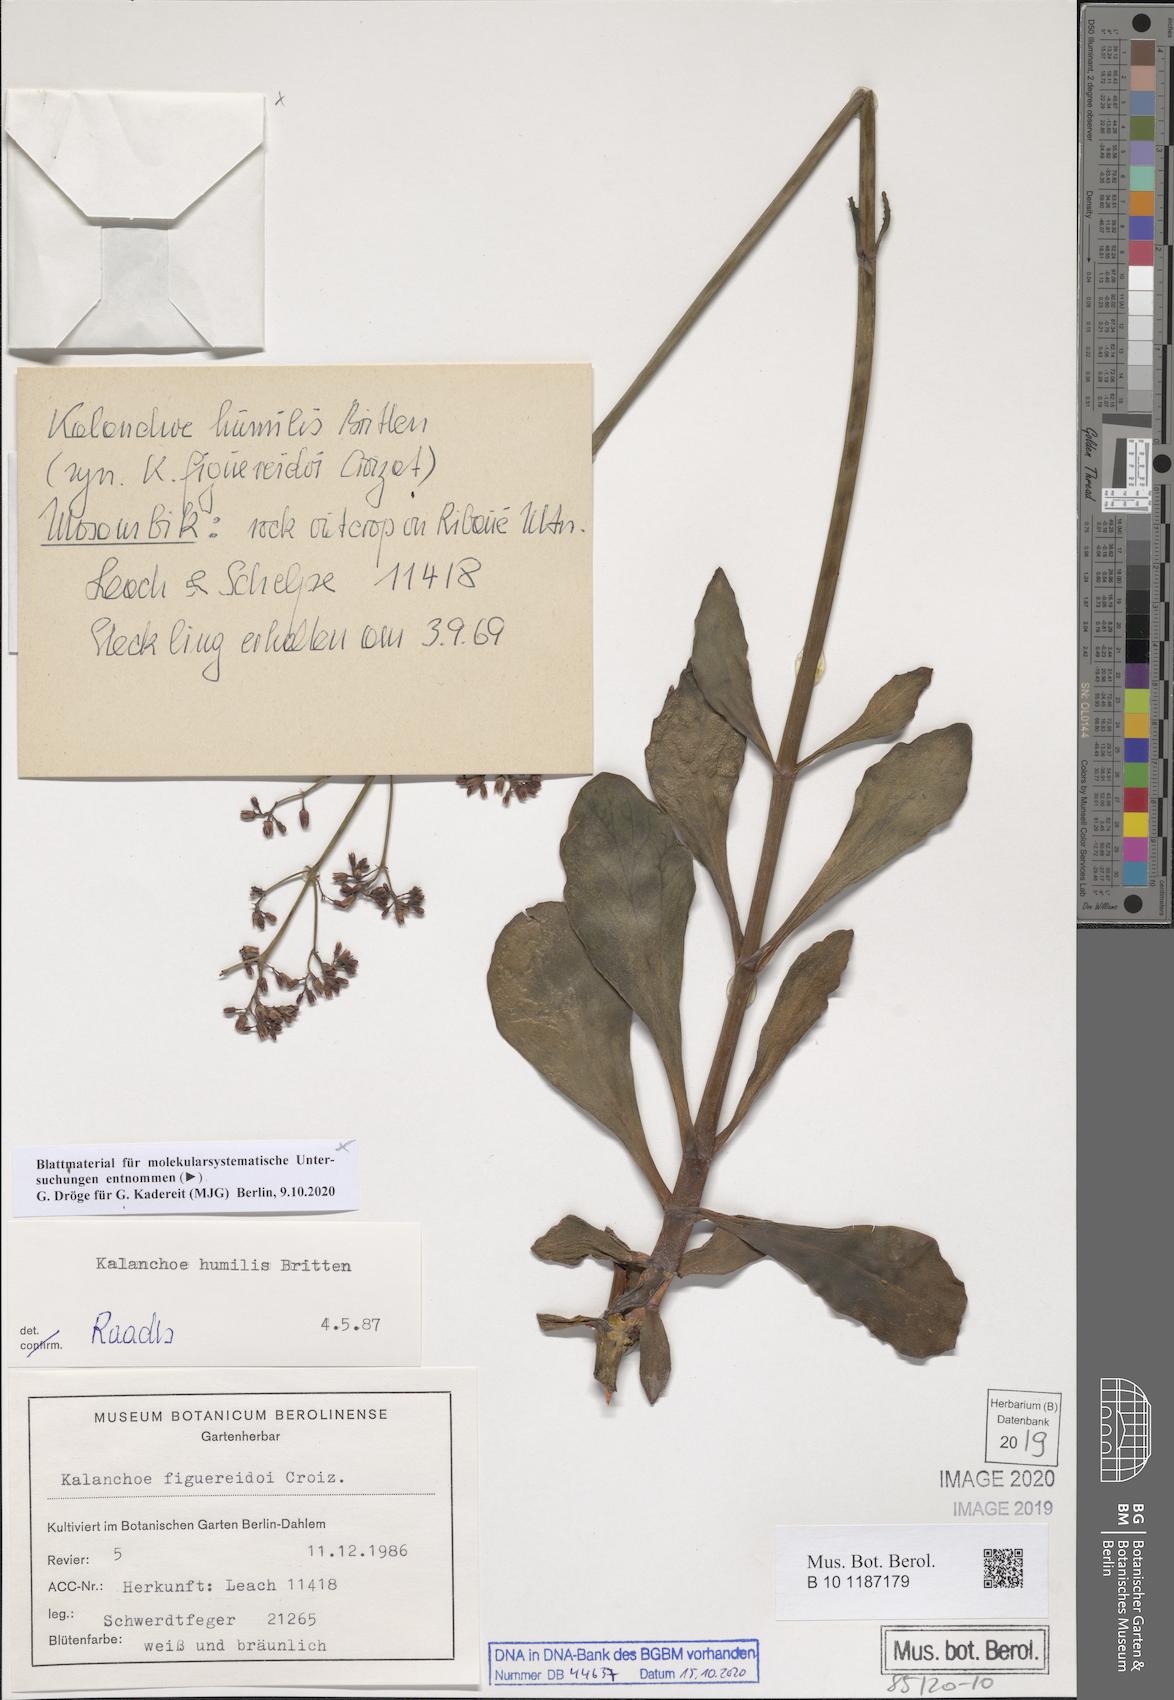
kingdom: Plantae
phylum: Tracheophyta
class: Magnoliopsida
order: Saxifragales
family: Crassulaceae
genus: Kalanchoe
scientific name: Kalanchoe humilis
